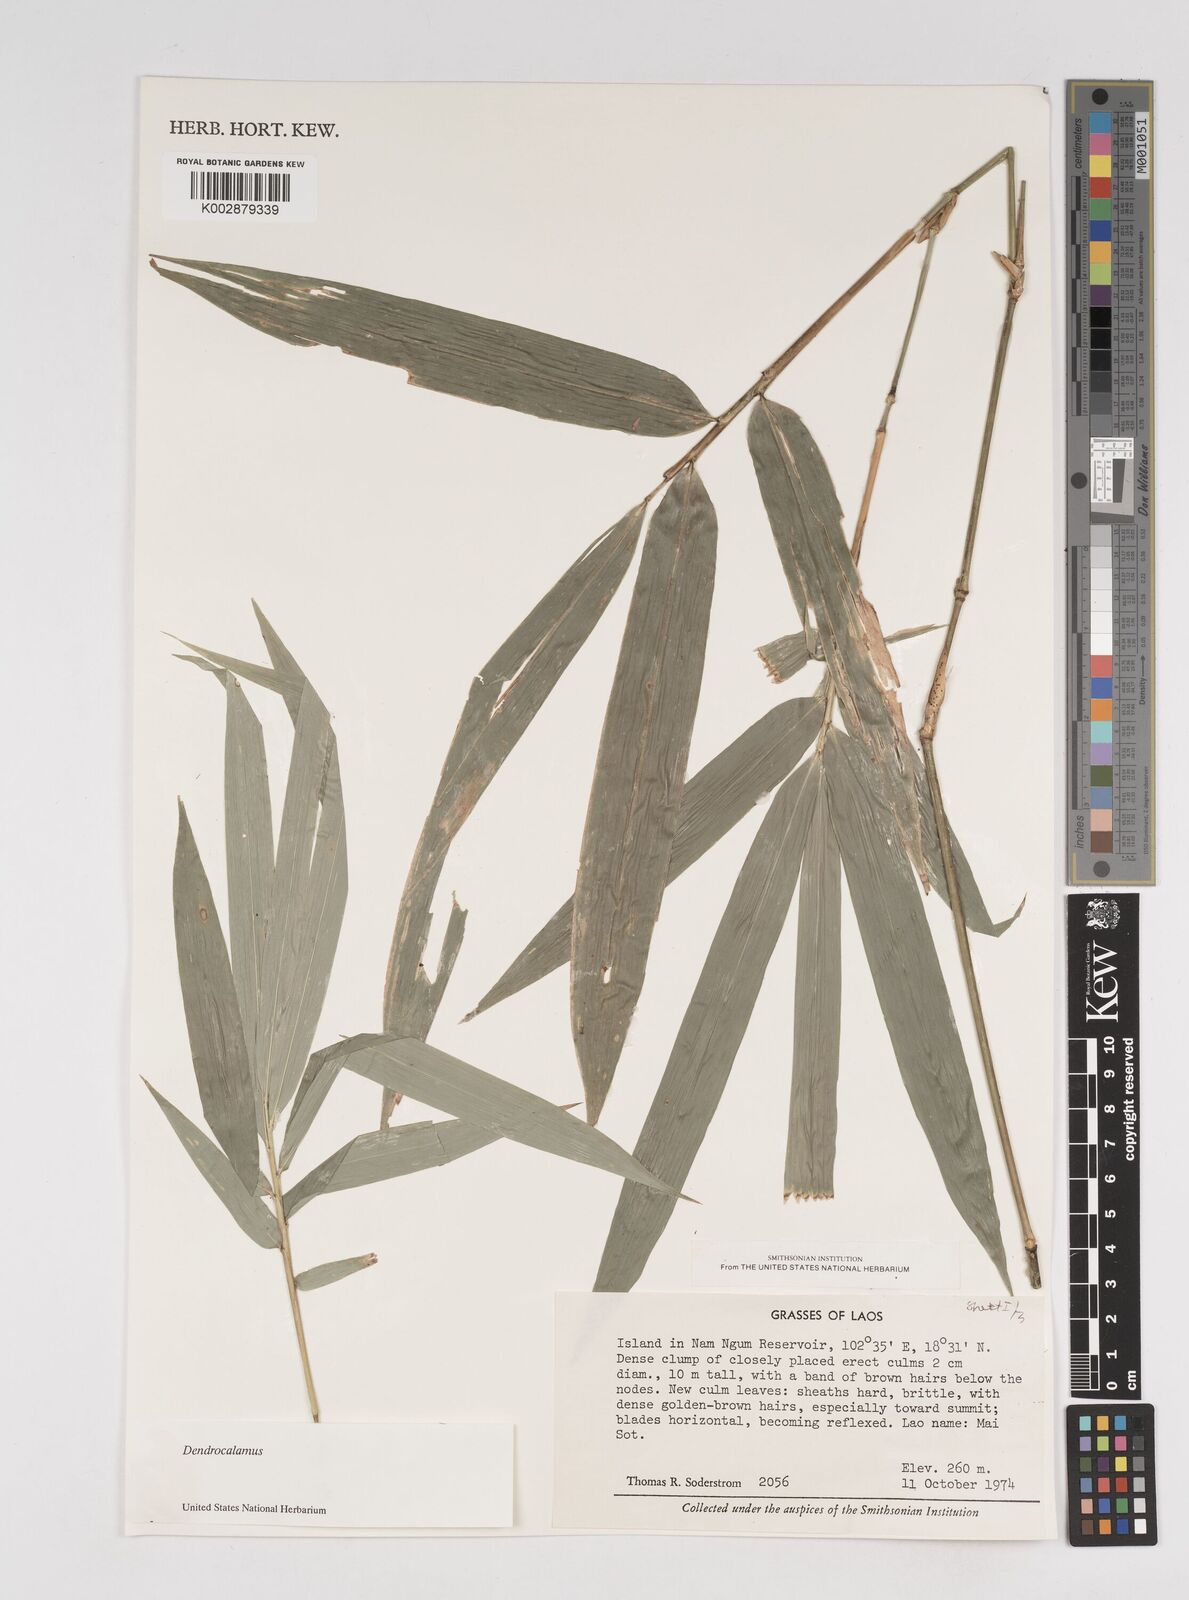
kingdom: Plantae
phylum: Tracheophyta
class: Liliopsida
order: Poales
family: Poaceae
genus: Dendrocalamus
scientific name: Dendrocalamus
